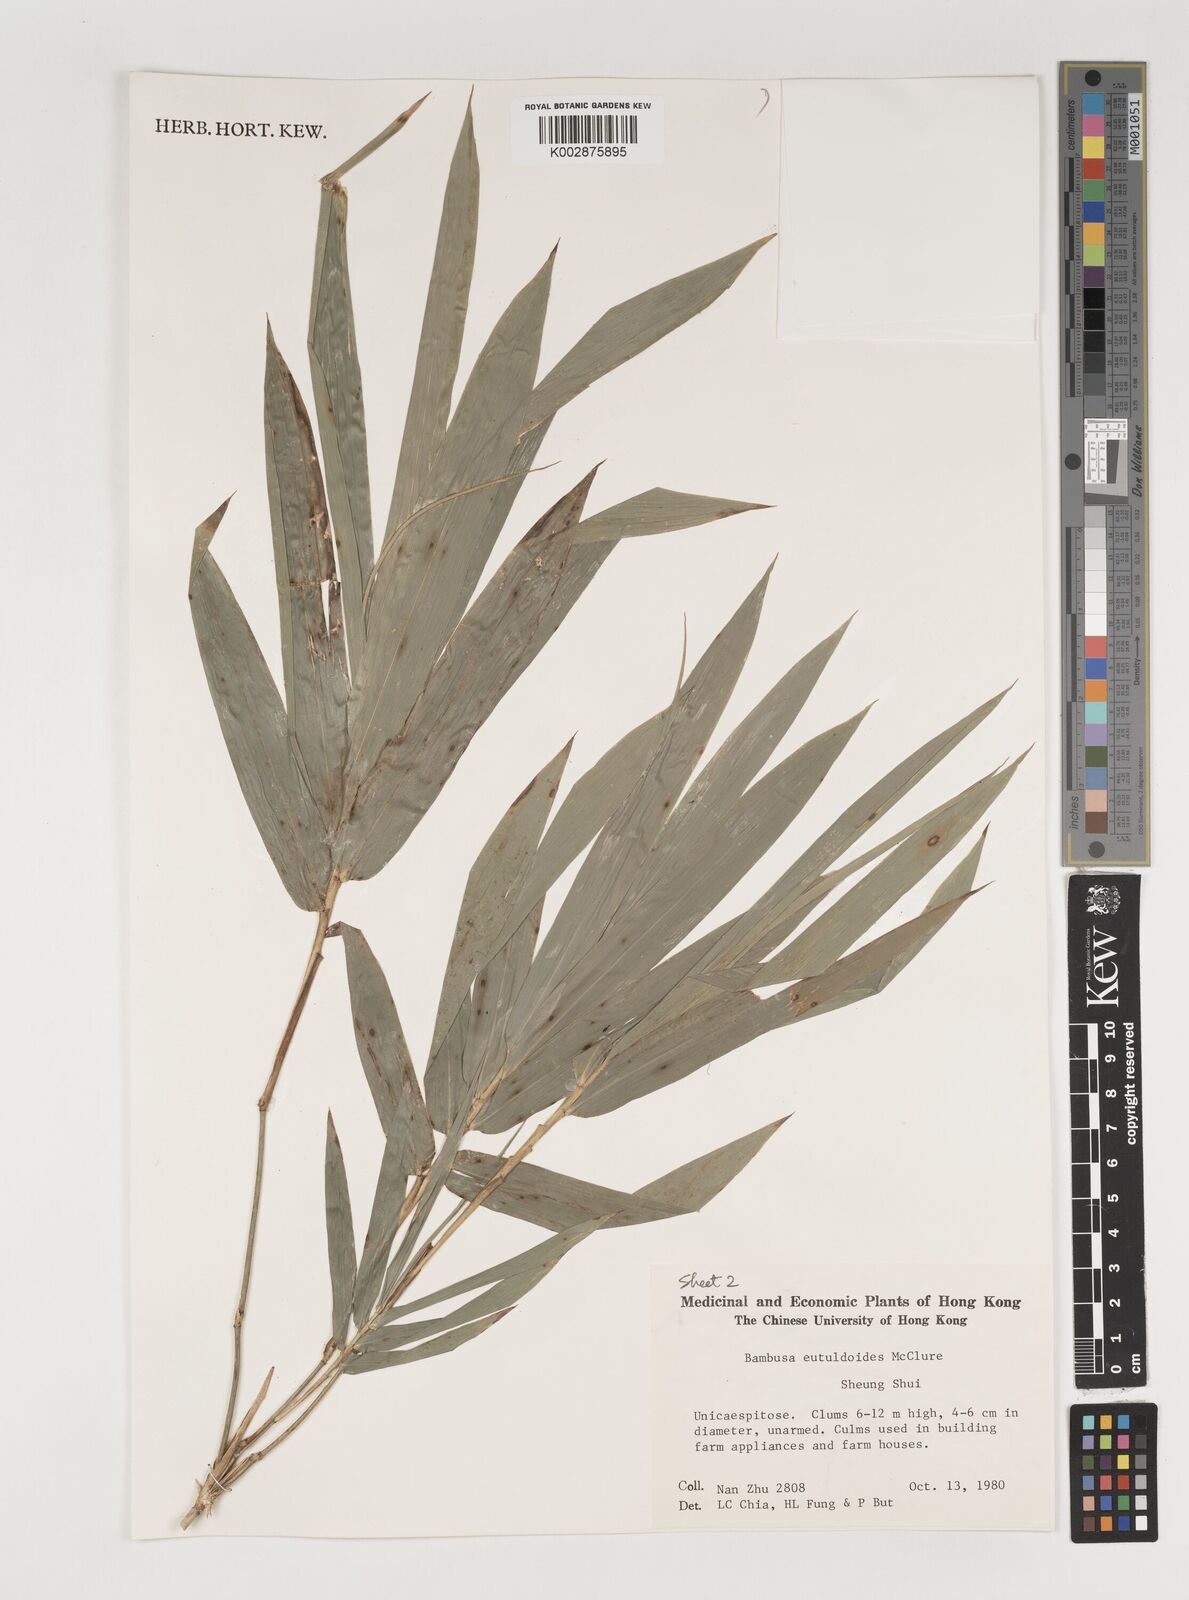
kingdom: Plantae
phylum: Tracheophyta
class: Liliopsida
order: Poales
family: Poaceae
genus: Bambusa
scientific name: Bambusa eutuldoides
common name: Dai ngan bamboo
